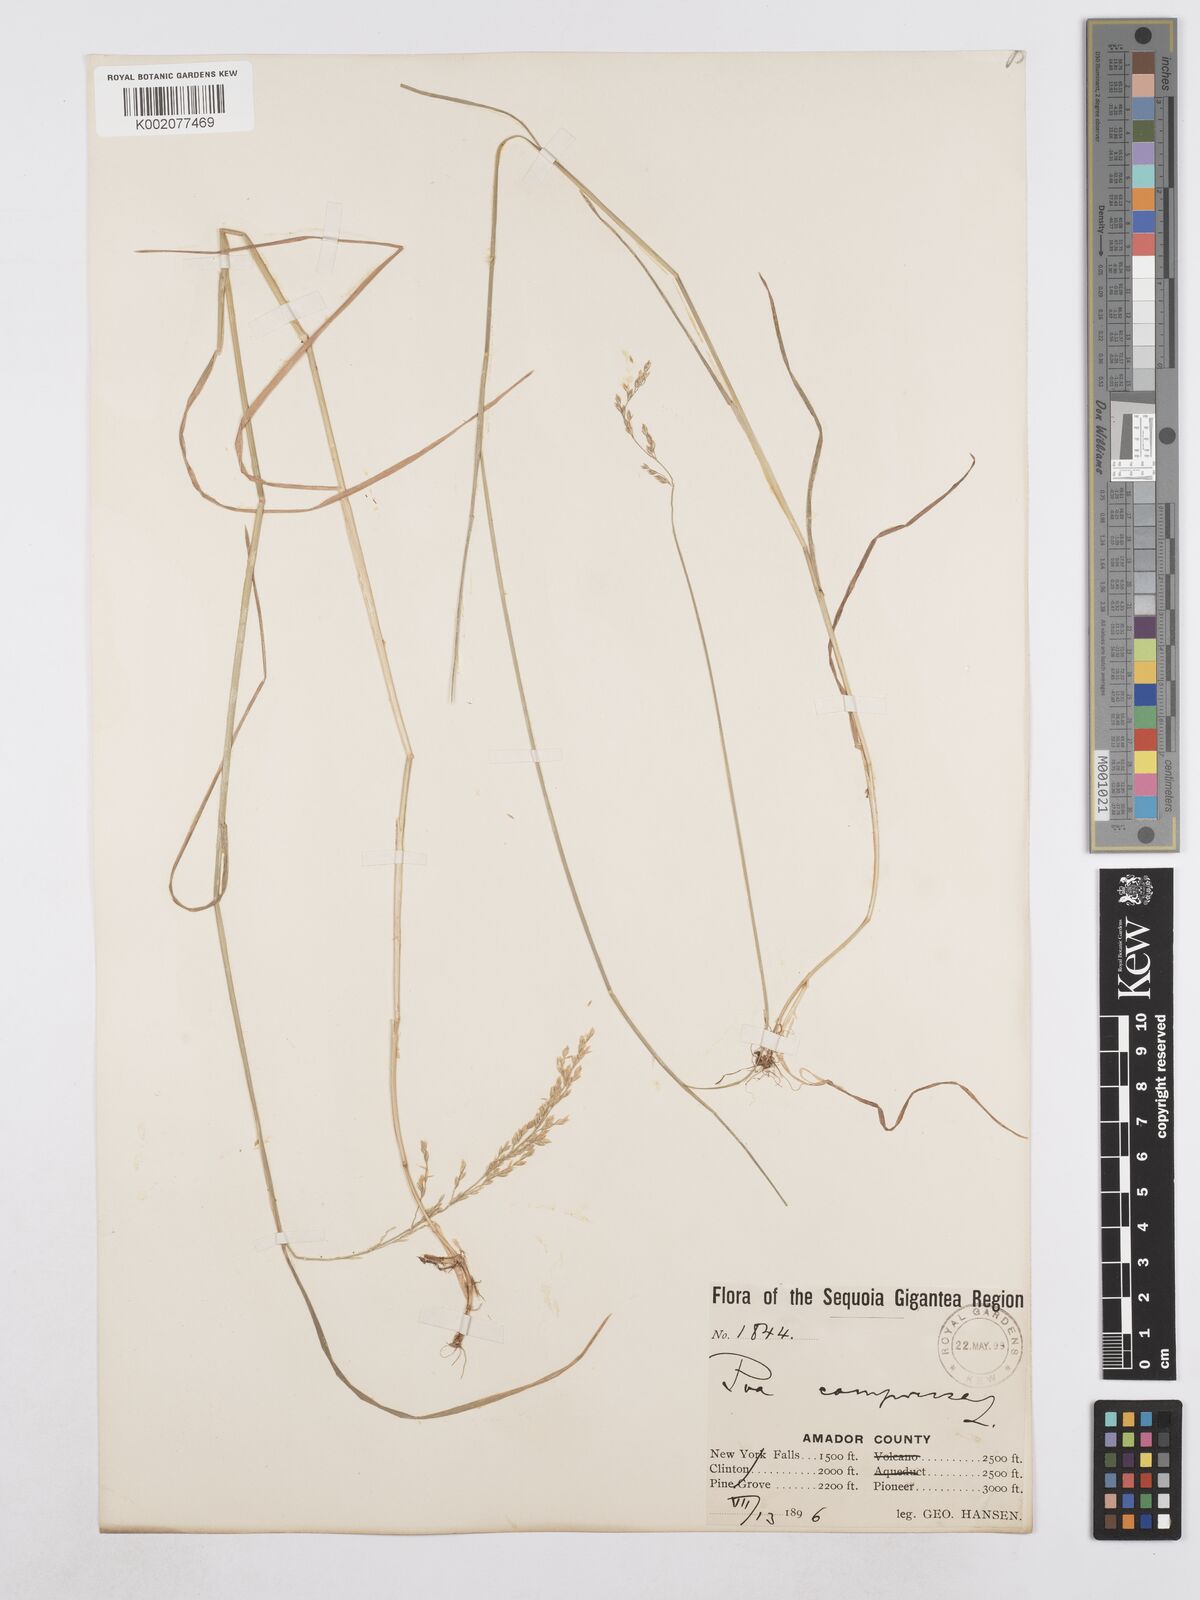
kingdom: Plantae
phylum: Tracheophyta
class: Liliopsida
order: Poales
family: Poaceae
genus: Poa
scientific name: Poa compressa
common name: Canada bluegrass
